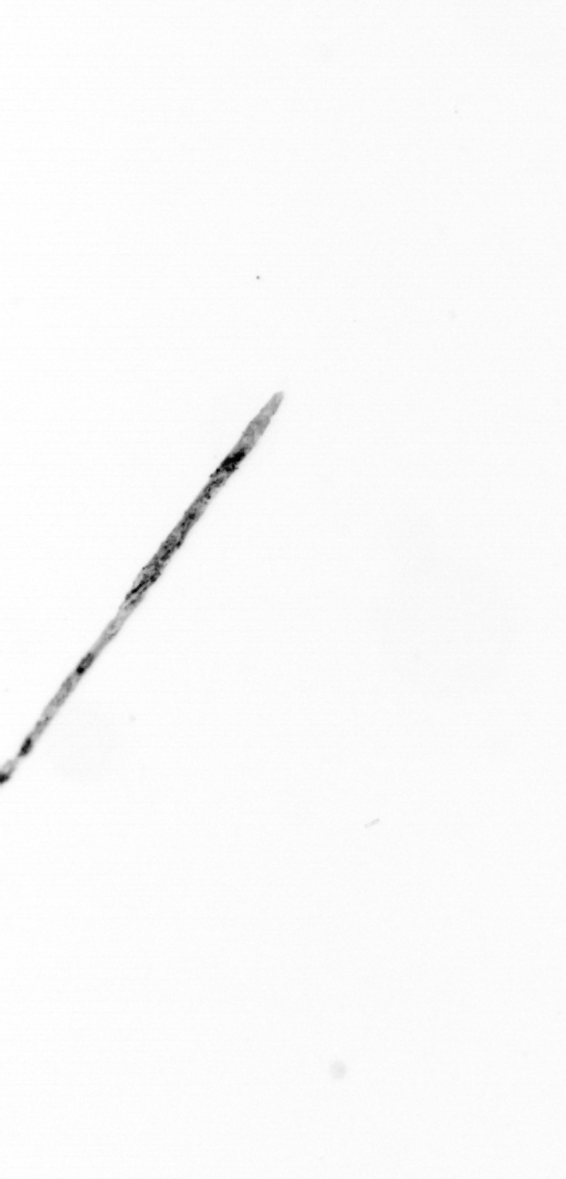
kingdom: Chromista
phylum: Ochrophyta
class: Bacillariophyceae
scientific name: Bacillariophyceae
